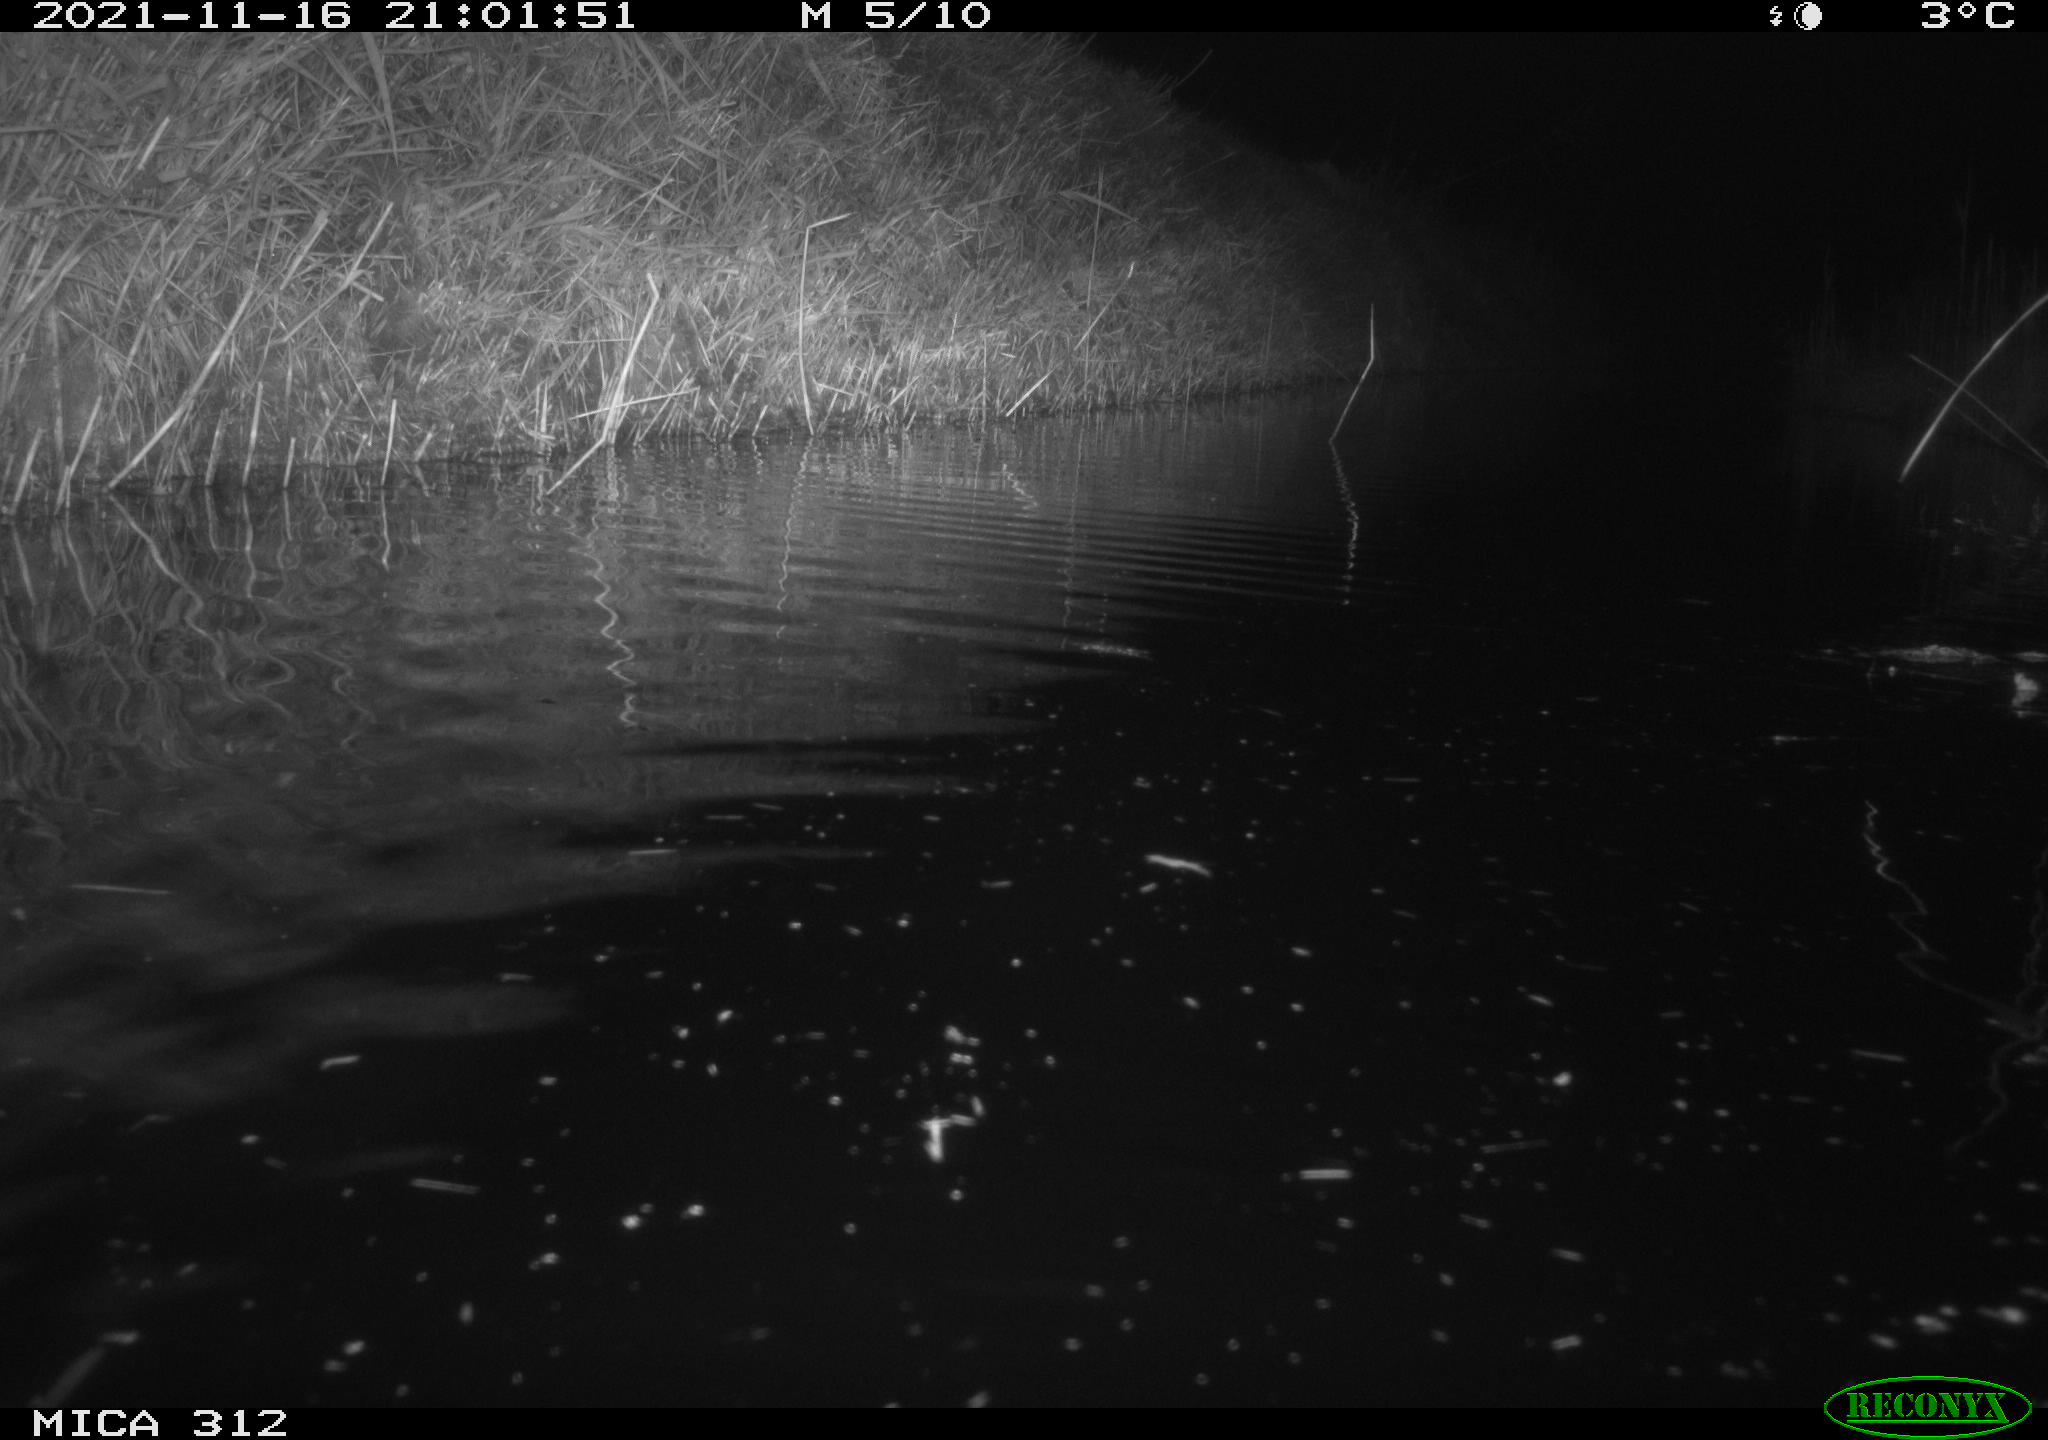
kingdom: Animalia
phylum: Chordata
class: Mammalia
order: Rodentia
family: Muridae
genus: Rattus
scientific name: Rattus norvegicus
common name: Brown rat
